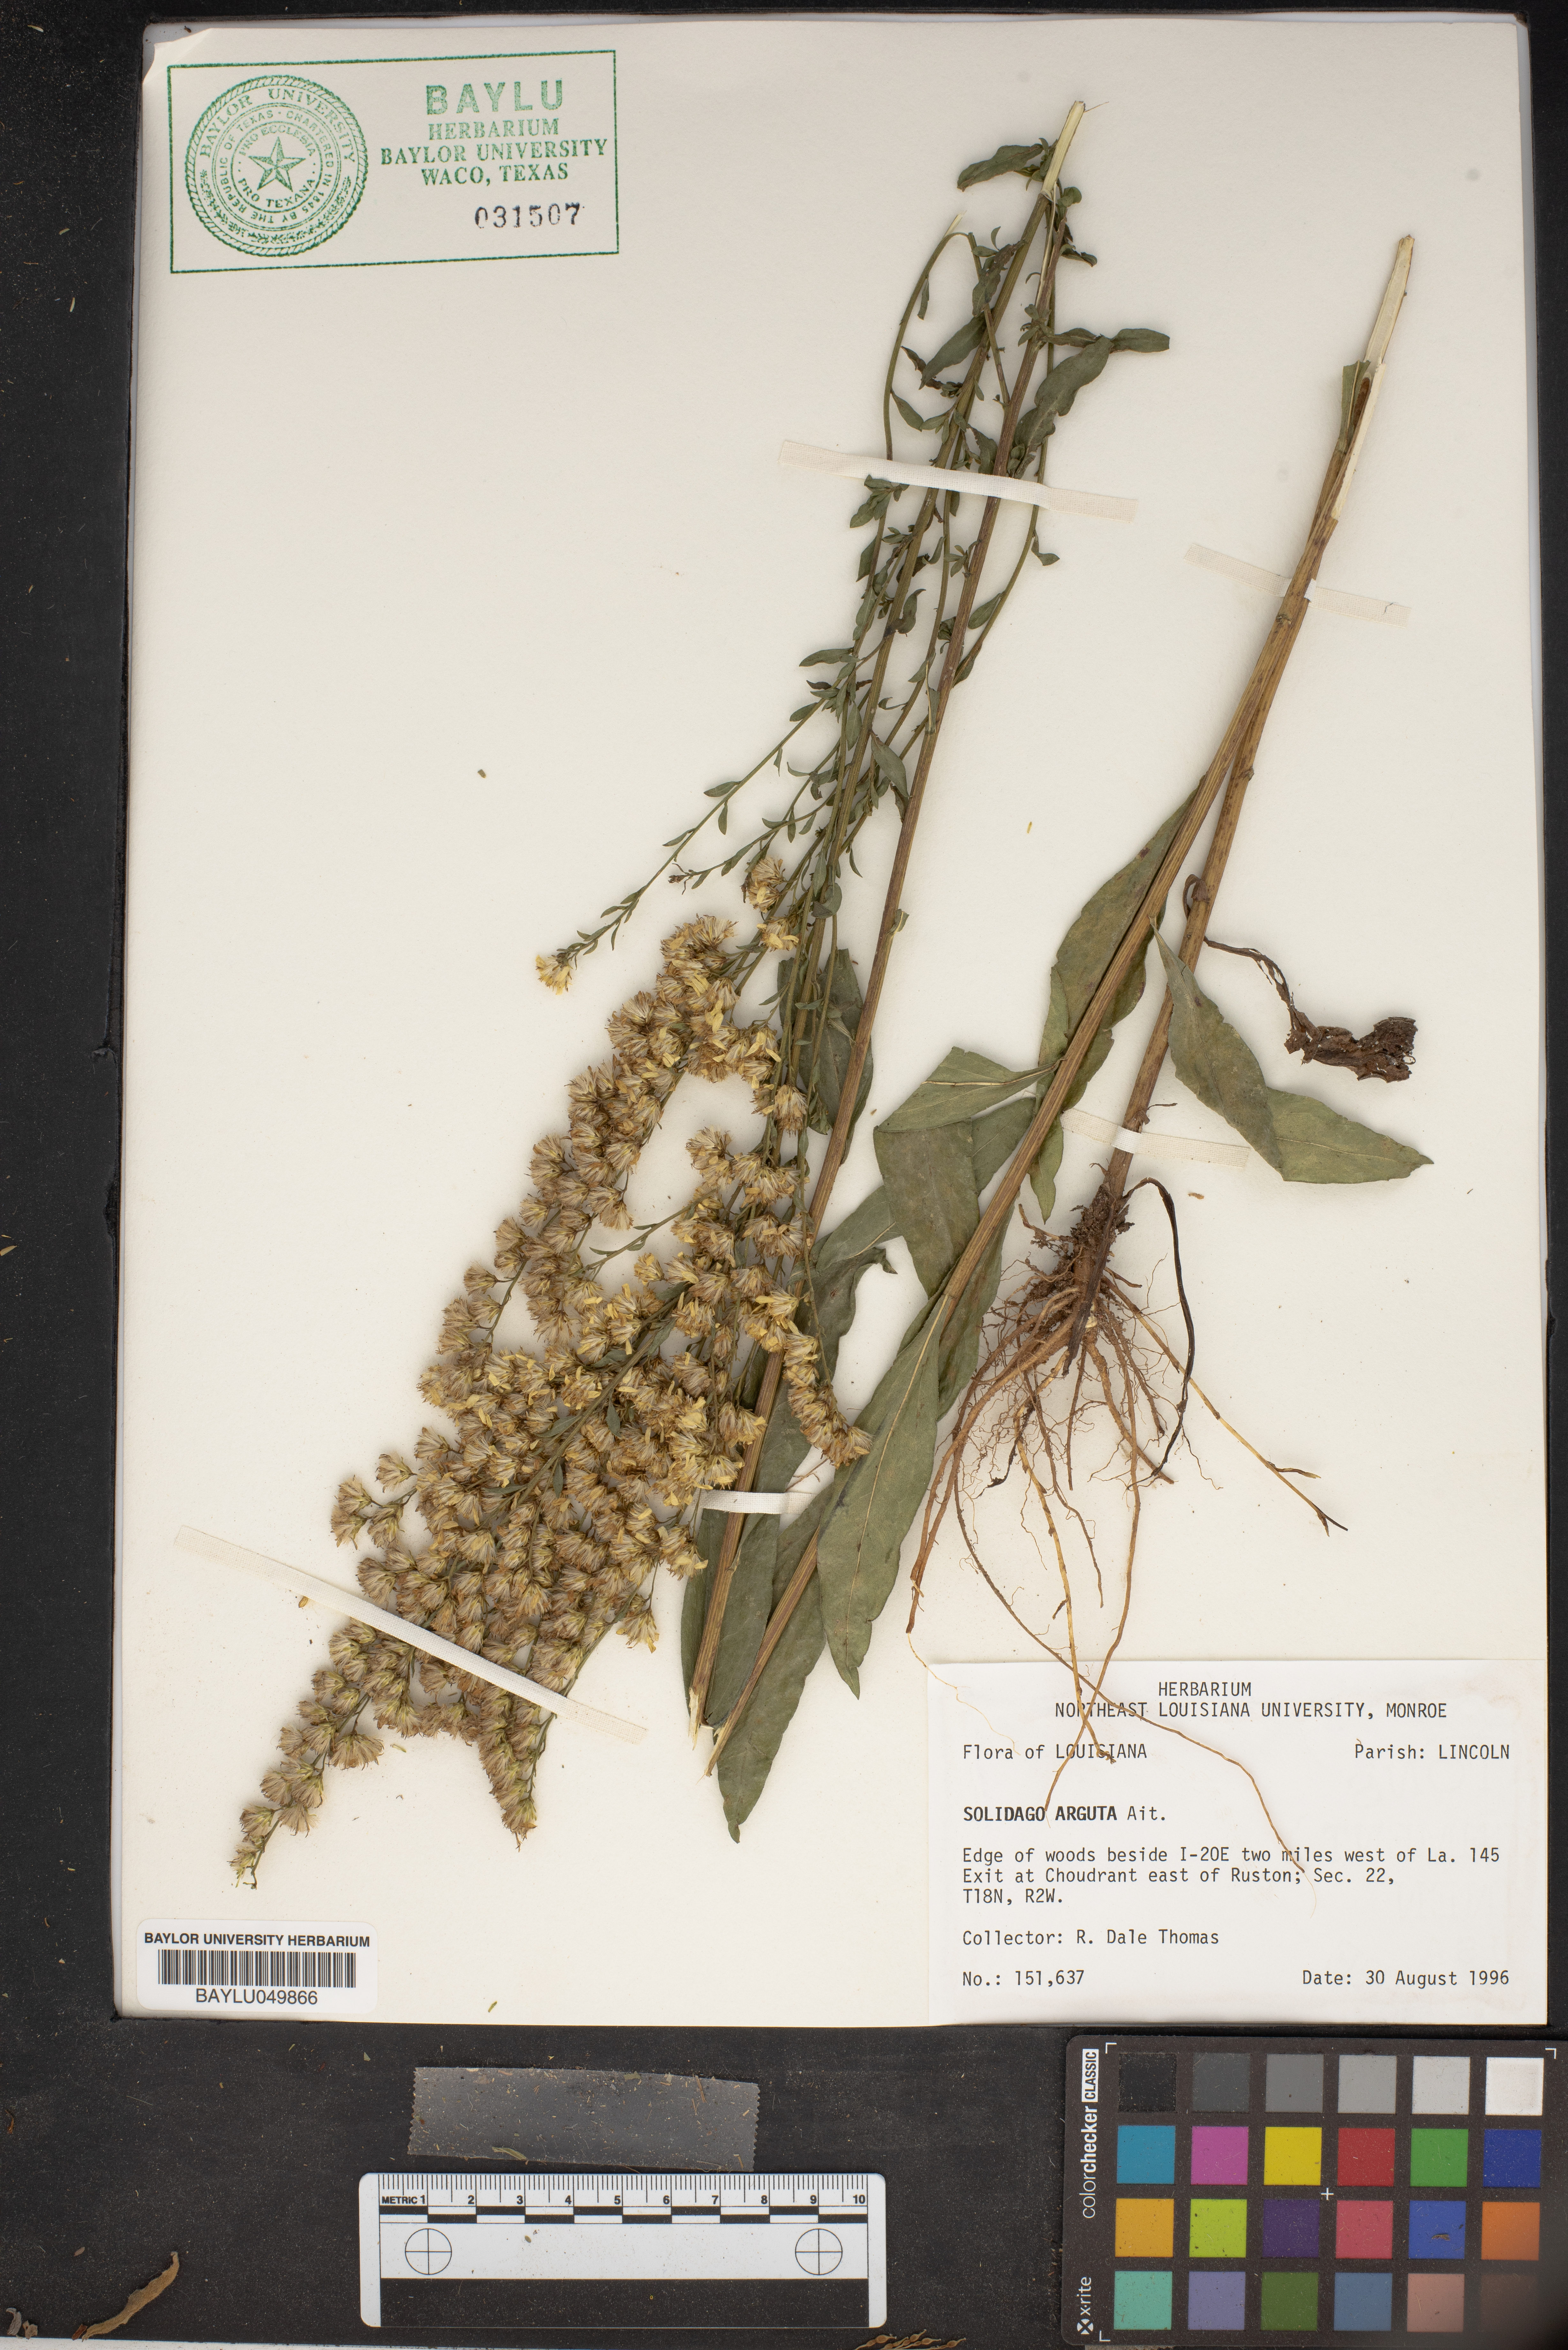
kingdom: Plantae
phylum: Tracheophyta
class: Magnoliopsida
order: Asterales
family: Asteraceae
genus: Solidago
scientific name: Solidago arguta
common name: Atlantic goldenrod
